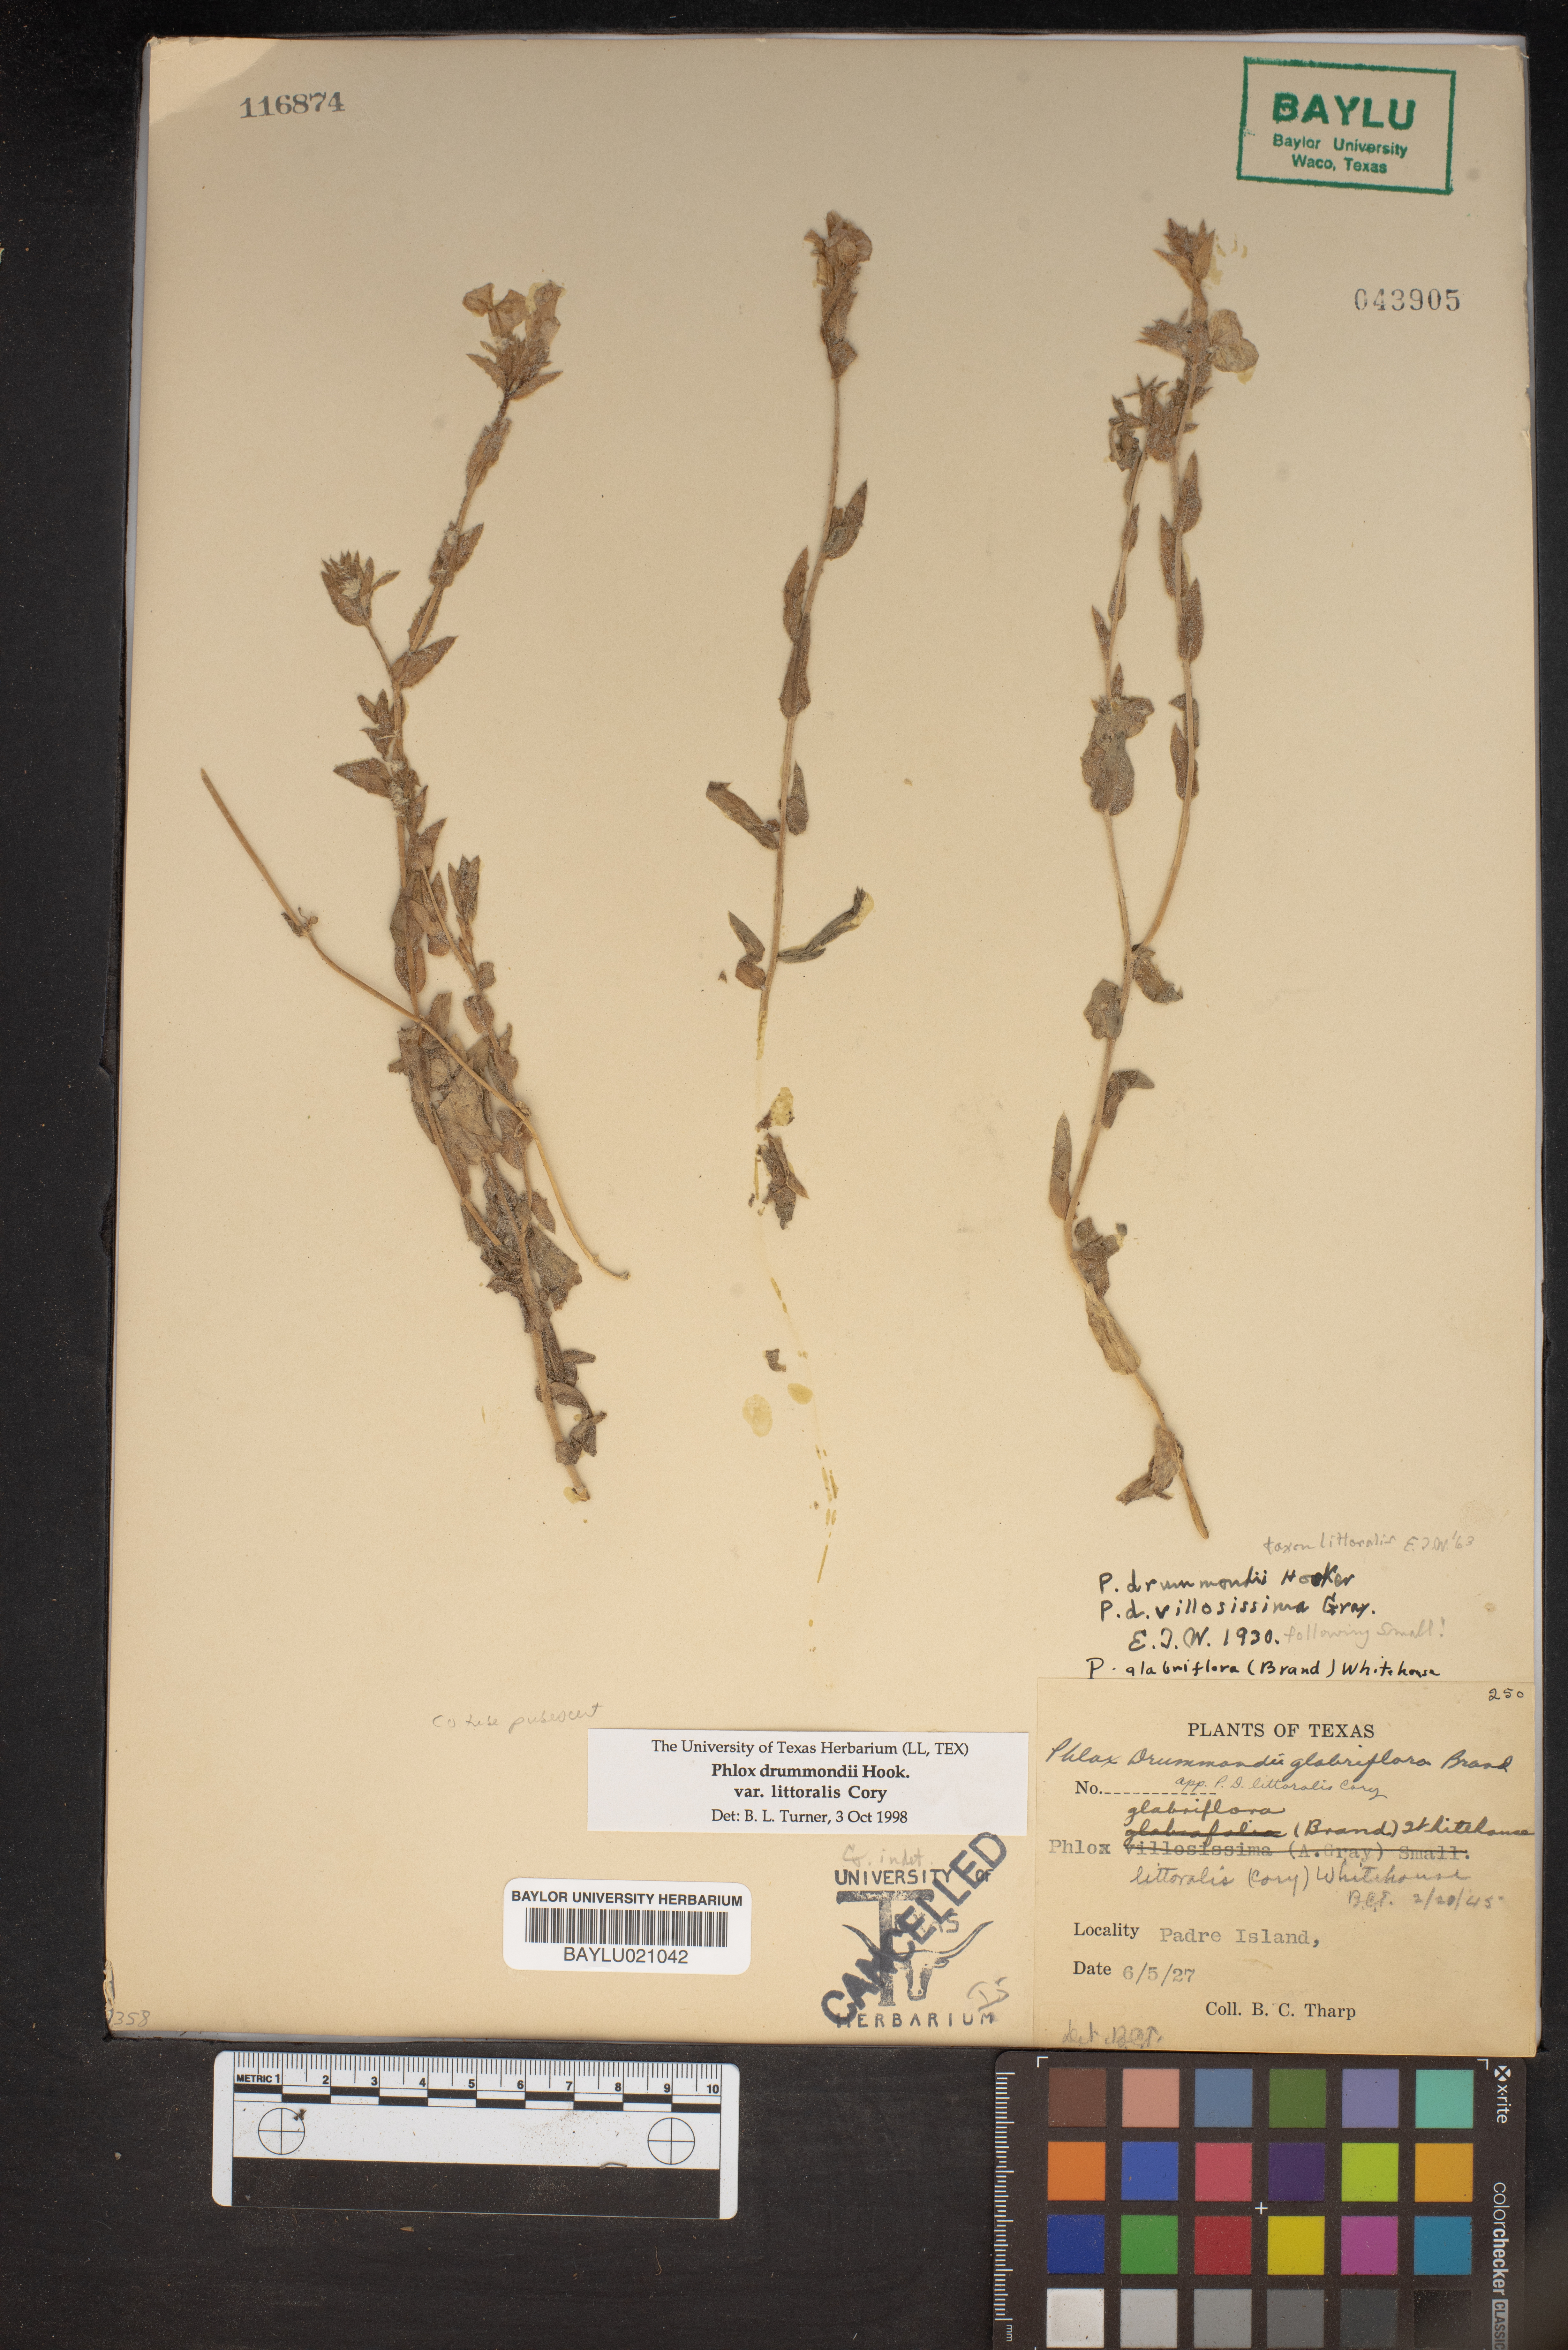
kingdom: Plantae
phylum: Tracheophyta
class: Magnoliopsida
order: Ericales
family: Polemoniaceae
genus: Phlox
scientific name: Phlox glabriflora
